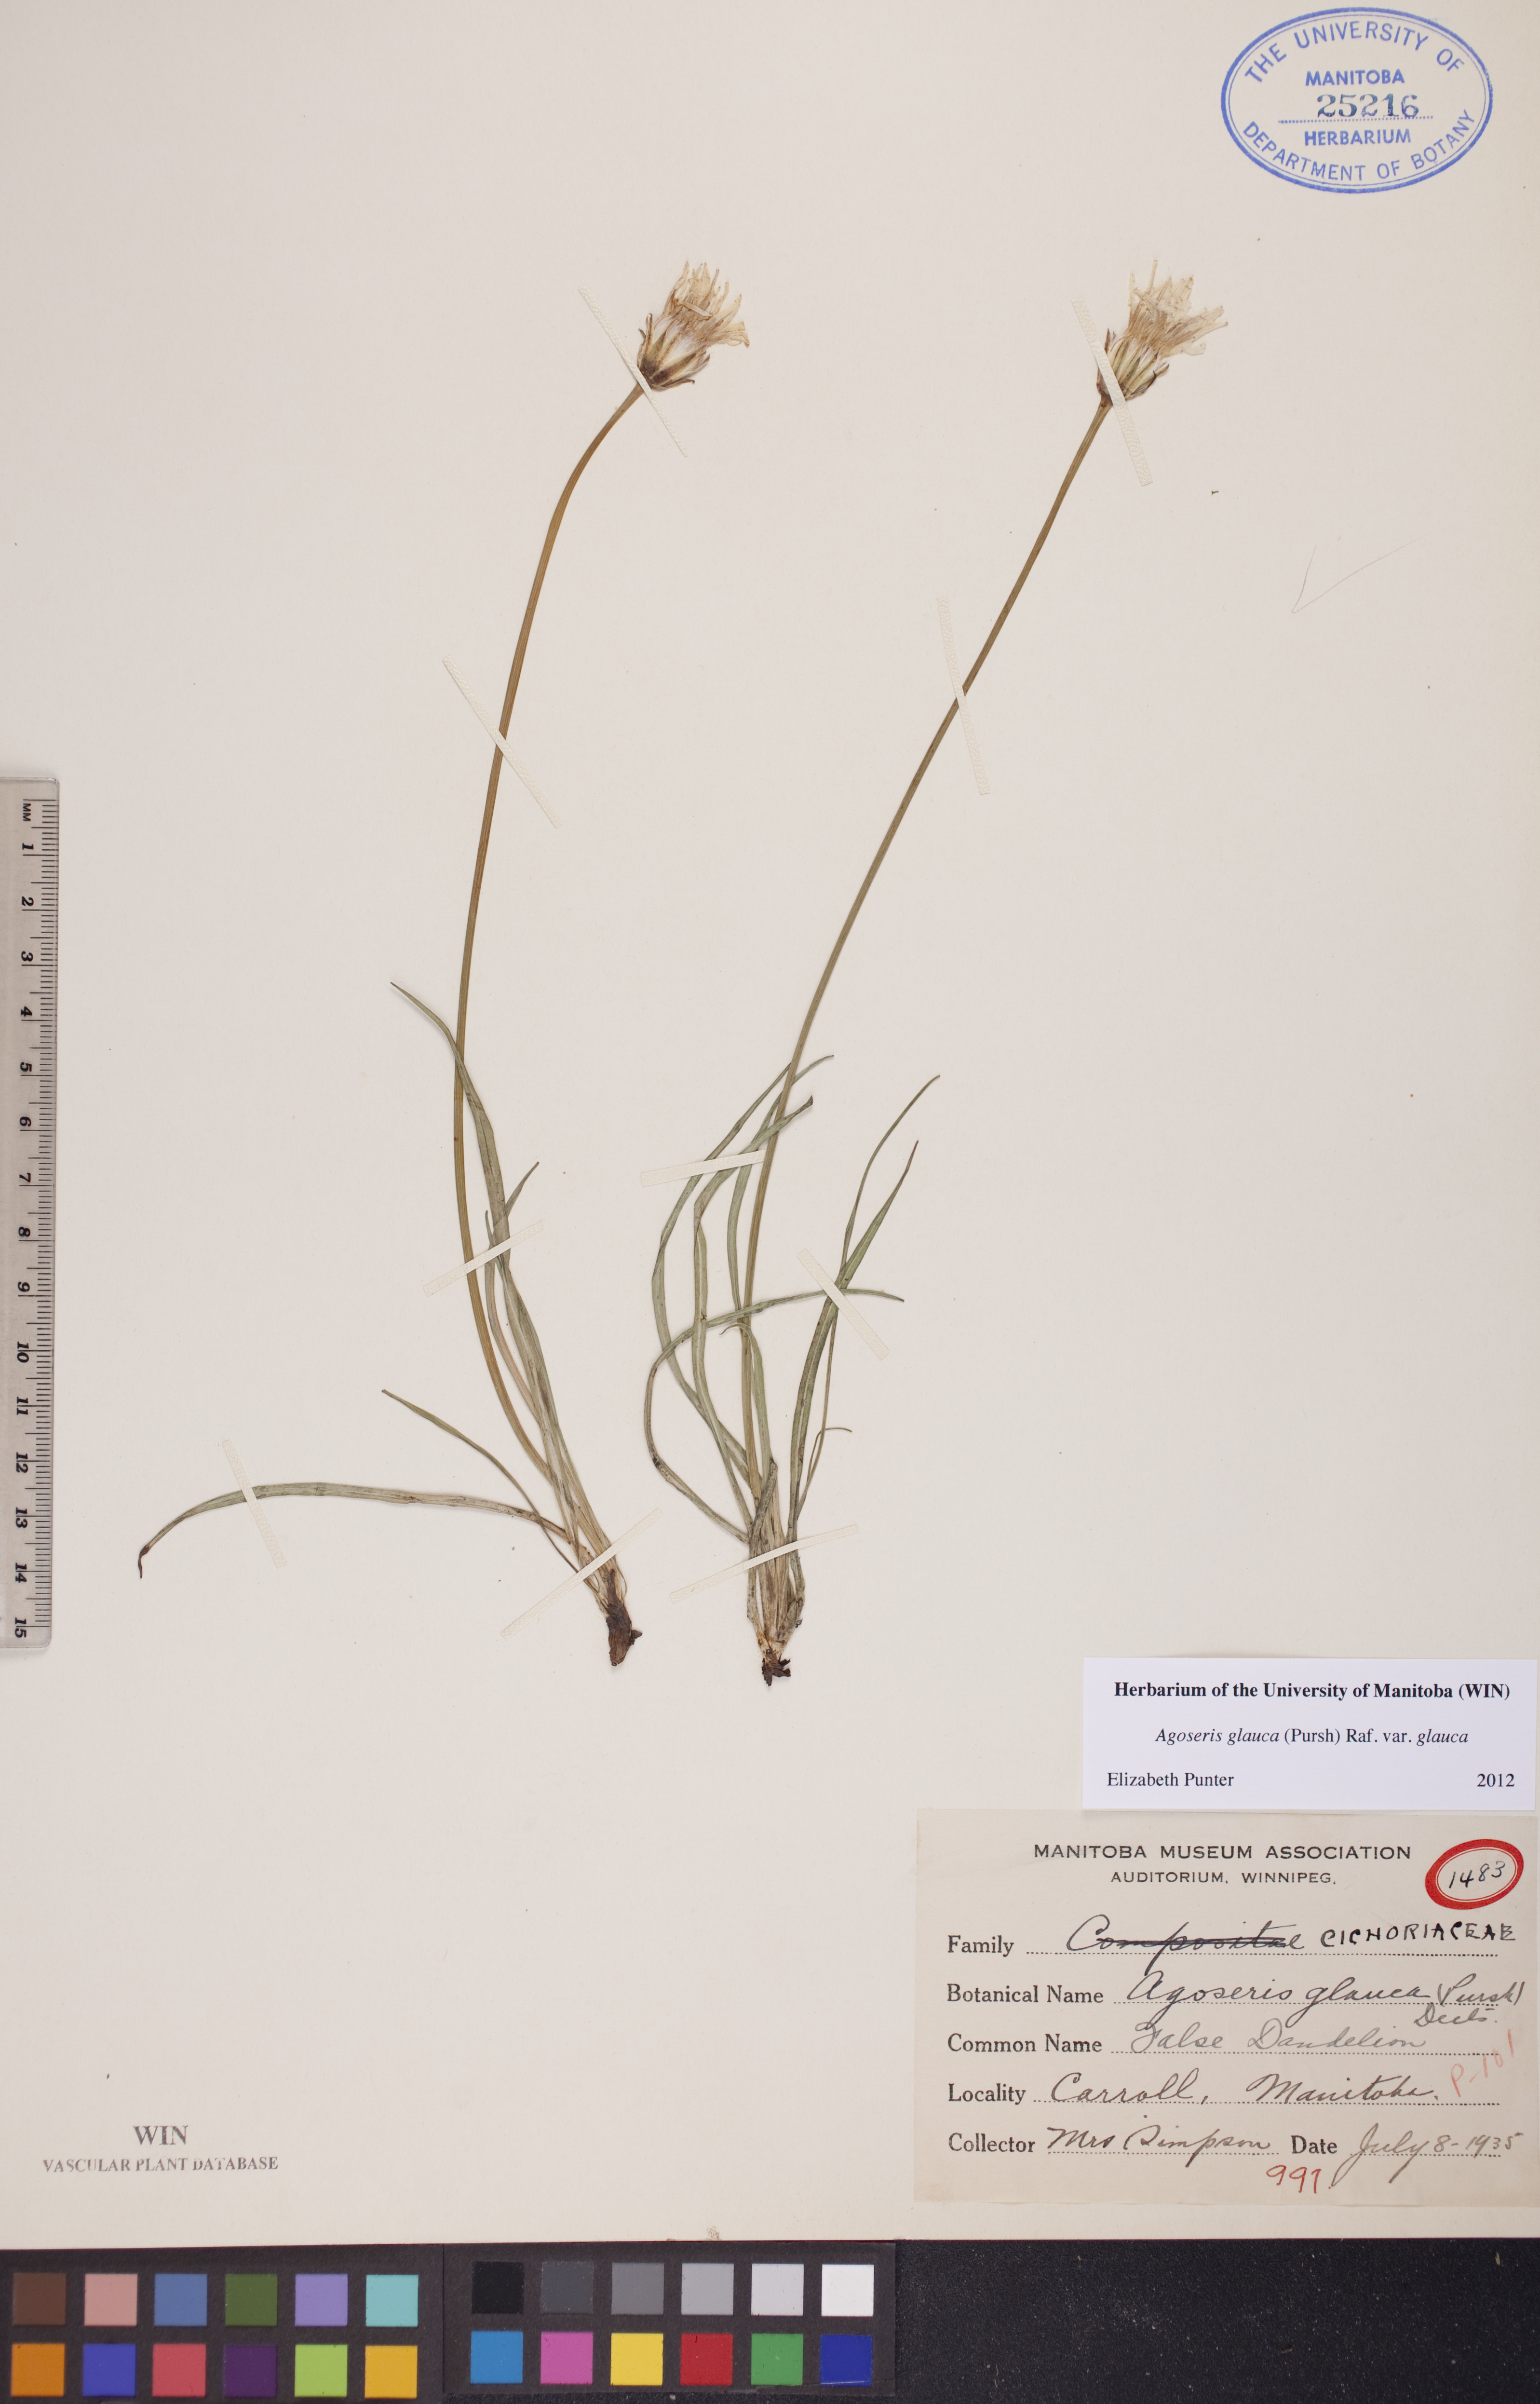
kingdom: Plantae
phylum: Tracheophyta
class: Magnoliopsida
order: Asterales
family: Asteraceae
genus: Agoseris
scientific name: Agoseris glauca
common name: Prairie agoseris
